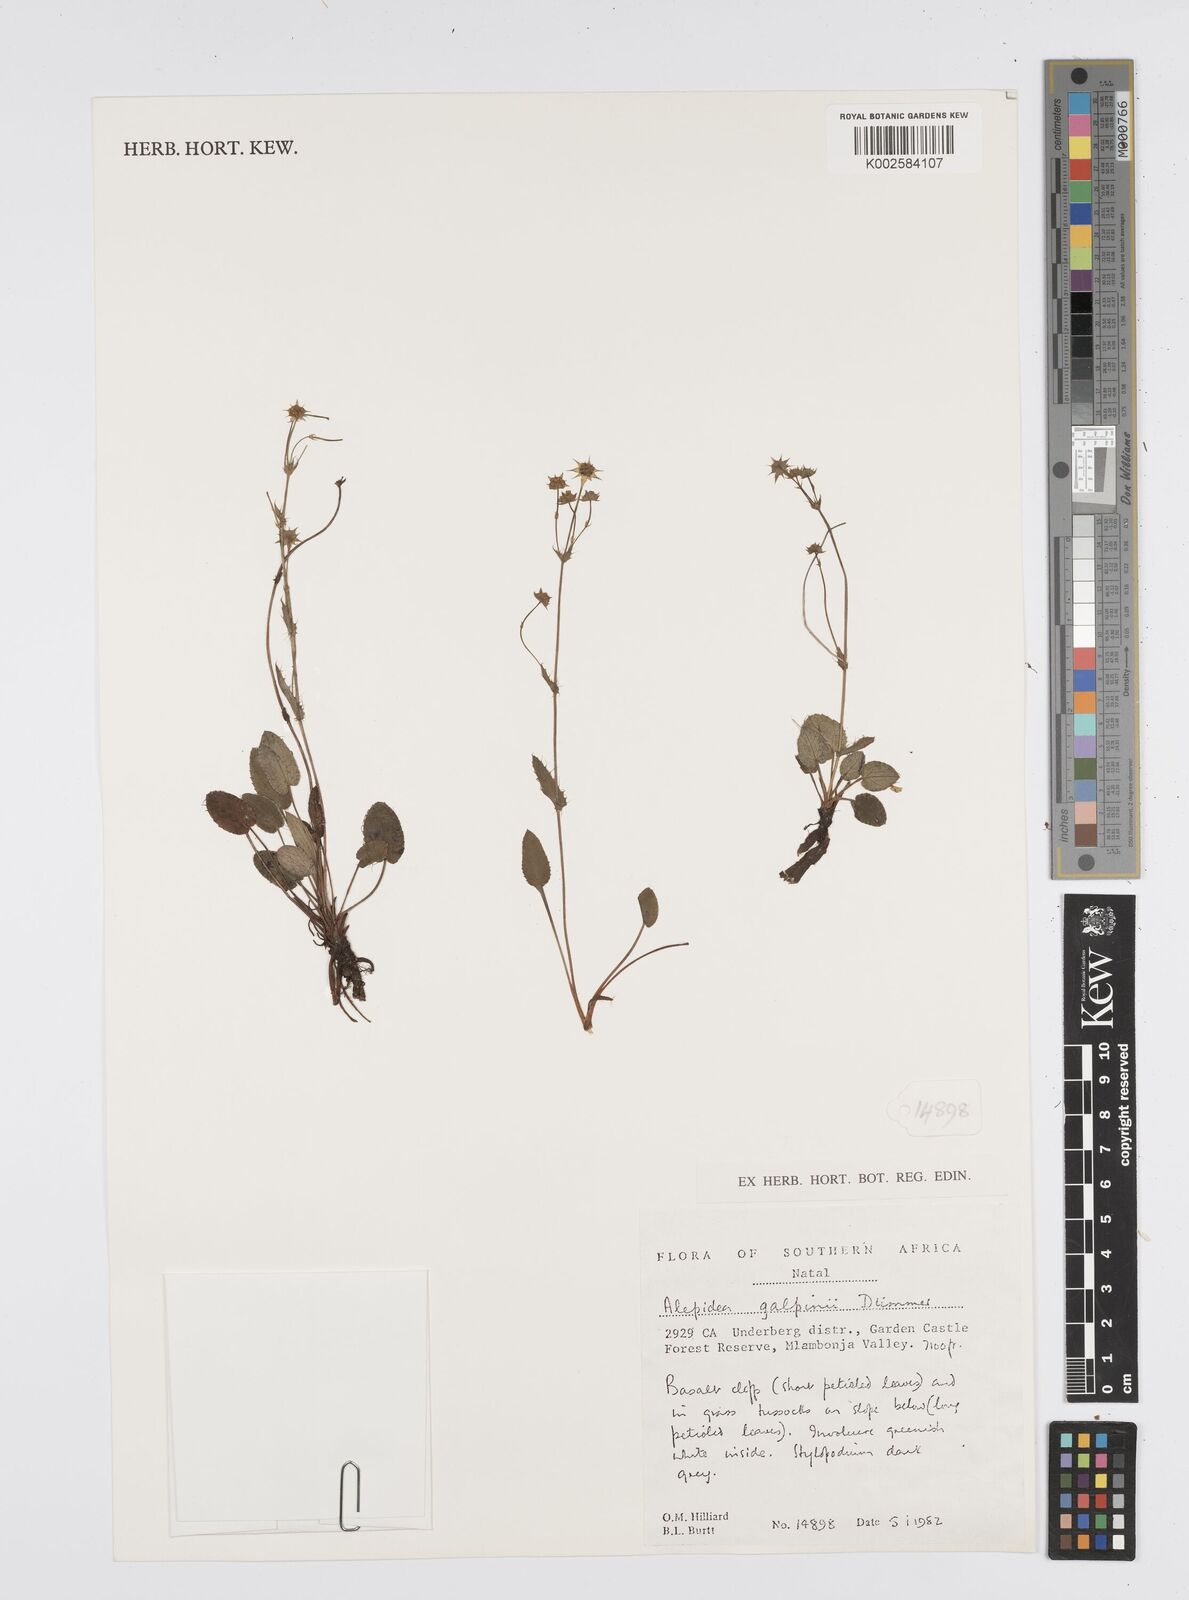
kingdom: Plantae
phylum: Tracheophyta
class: Magnoliopsida
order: Apiales
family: Apiaceae
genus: Alepidea
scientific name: Alepidea galpinii
